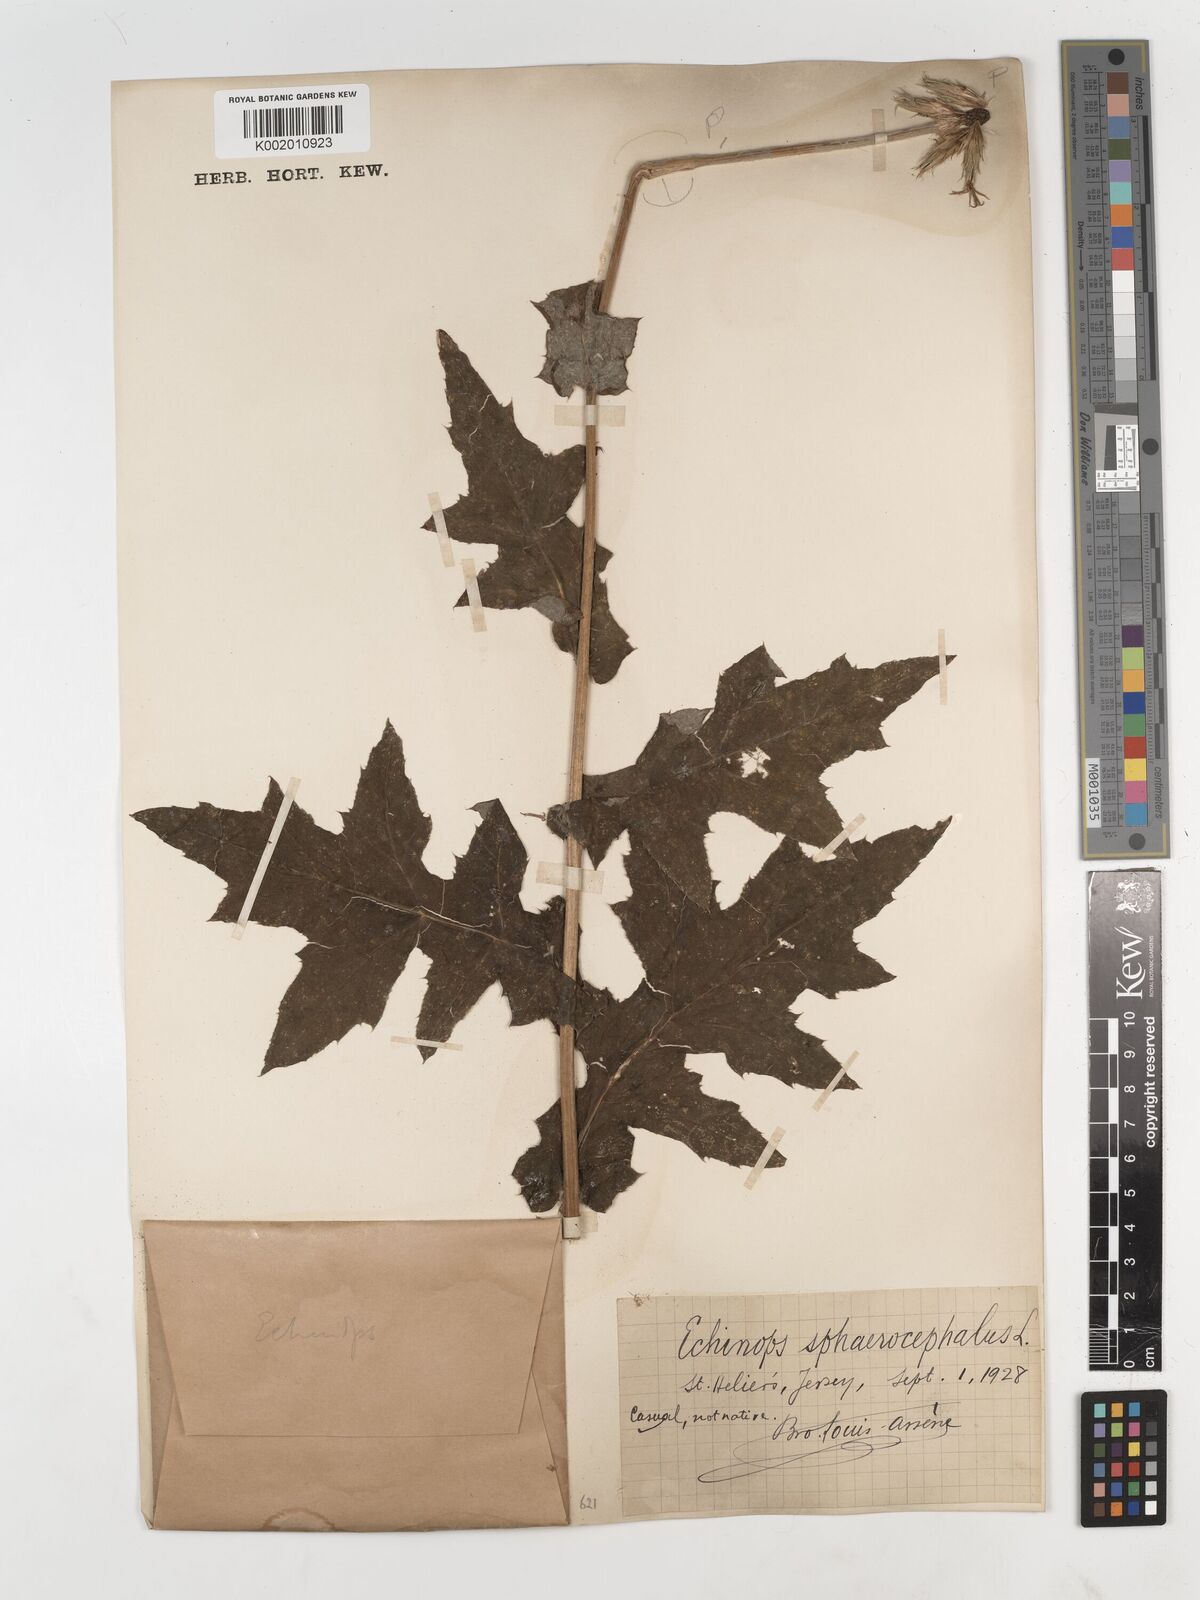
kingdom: Plantae
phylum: Tracheophyta
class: Magnoliopsida
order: Asterales
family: Asteraceae
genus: Echinops
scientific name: Echinops sphaerocephalus
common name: Glandular globe-thistle
